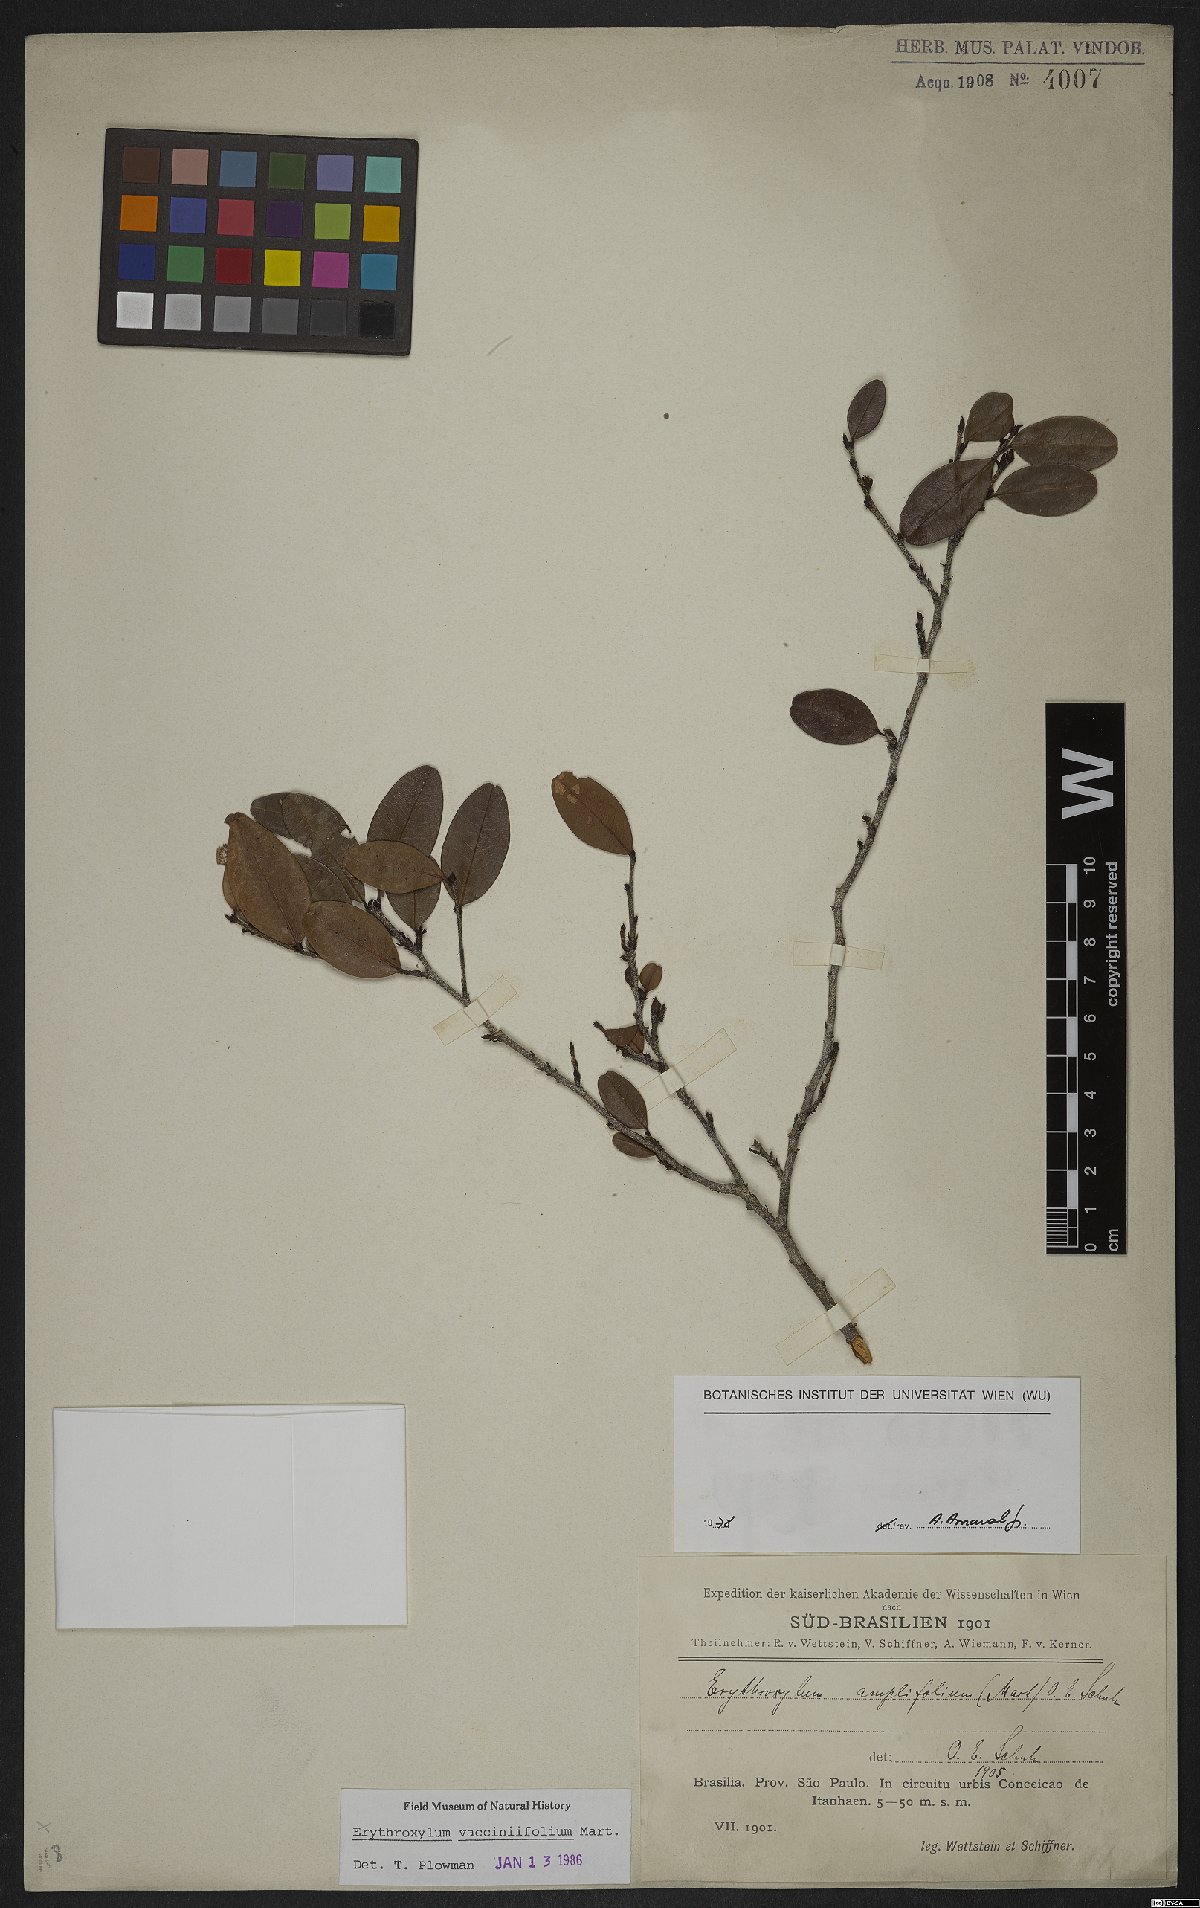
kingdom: Plantae
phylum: Tracheophyta
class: Magnoliopsida
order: Malpighiales
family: Erythroxylaceae
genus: Erythroxylum
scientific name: Erythroxylum vaccinifolium
